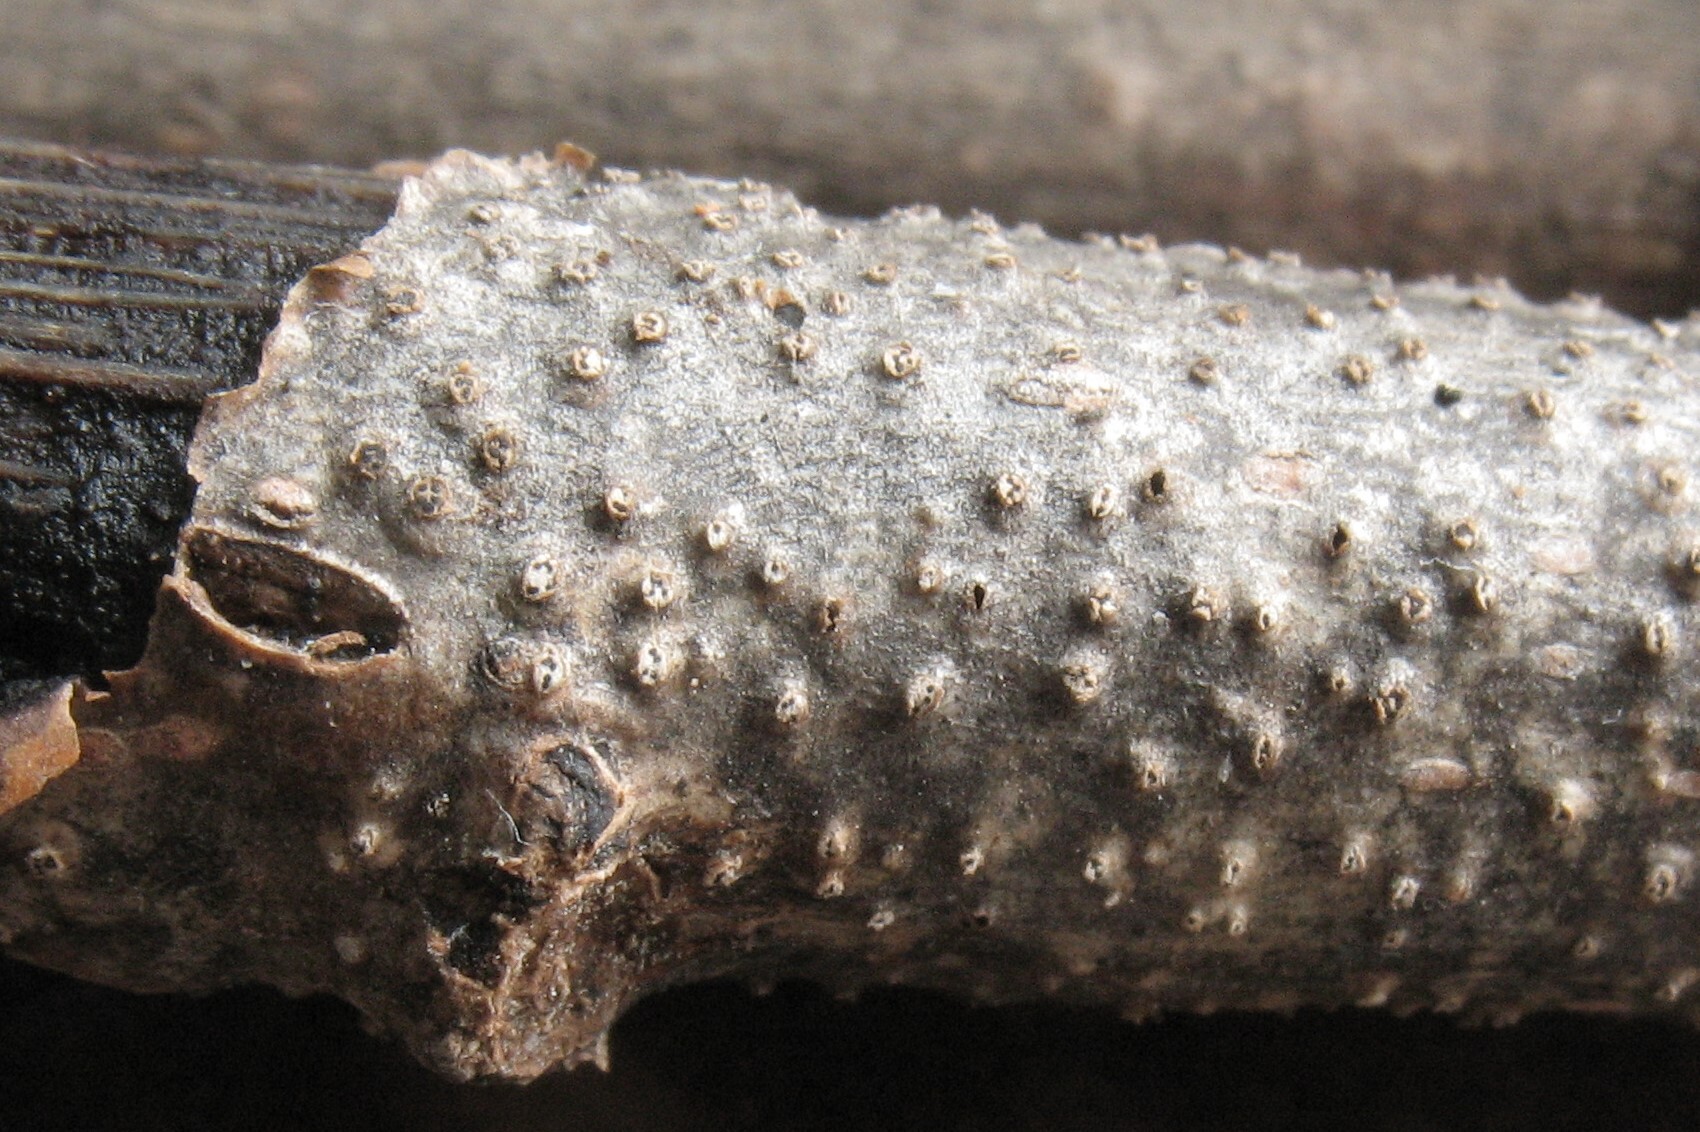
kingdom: Fungi
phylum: Ascomycota
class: Sordariomycetes
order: Diaporthales
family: Valsaceae
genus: Cytospora
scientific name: Cytospora nivea
